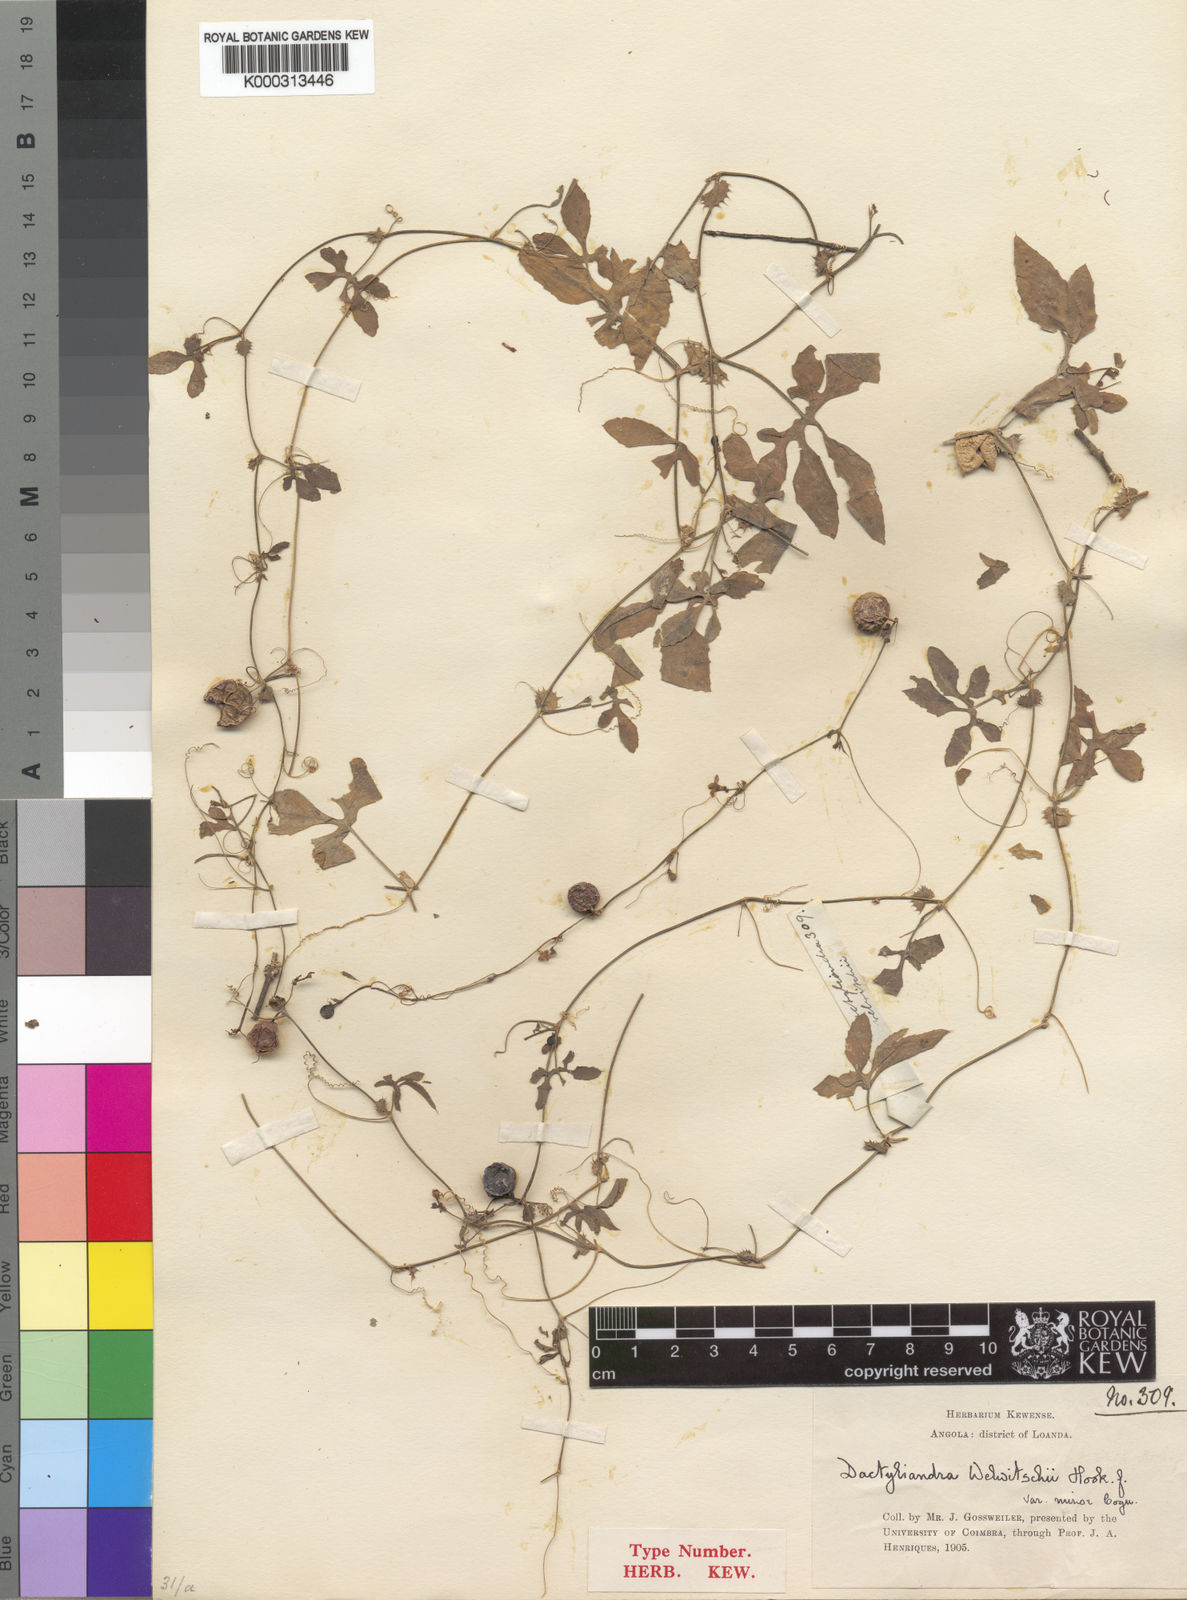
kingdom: Plantae
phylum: Tracheophyta
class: Magnoliopsida
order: Cucurbitales
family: Cucurbitaceae
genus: Dactyliandra
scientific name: Dactyliandra welwitschii
